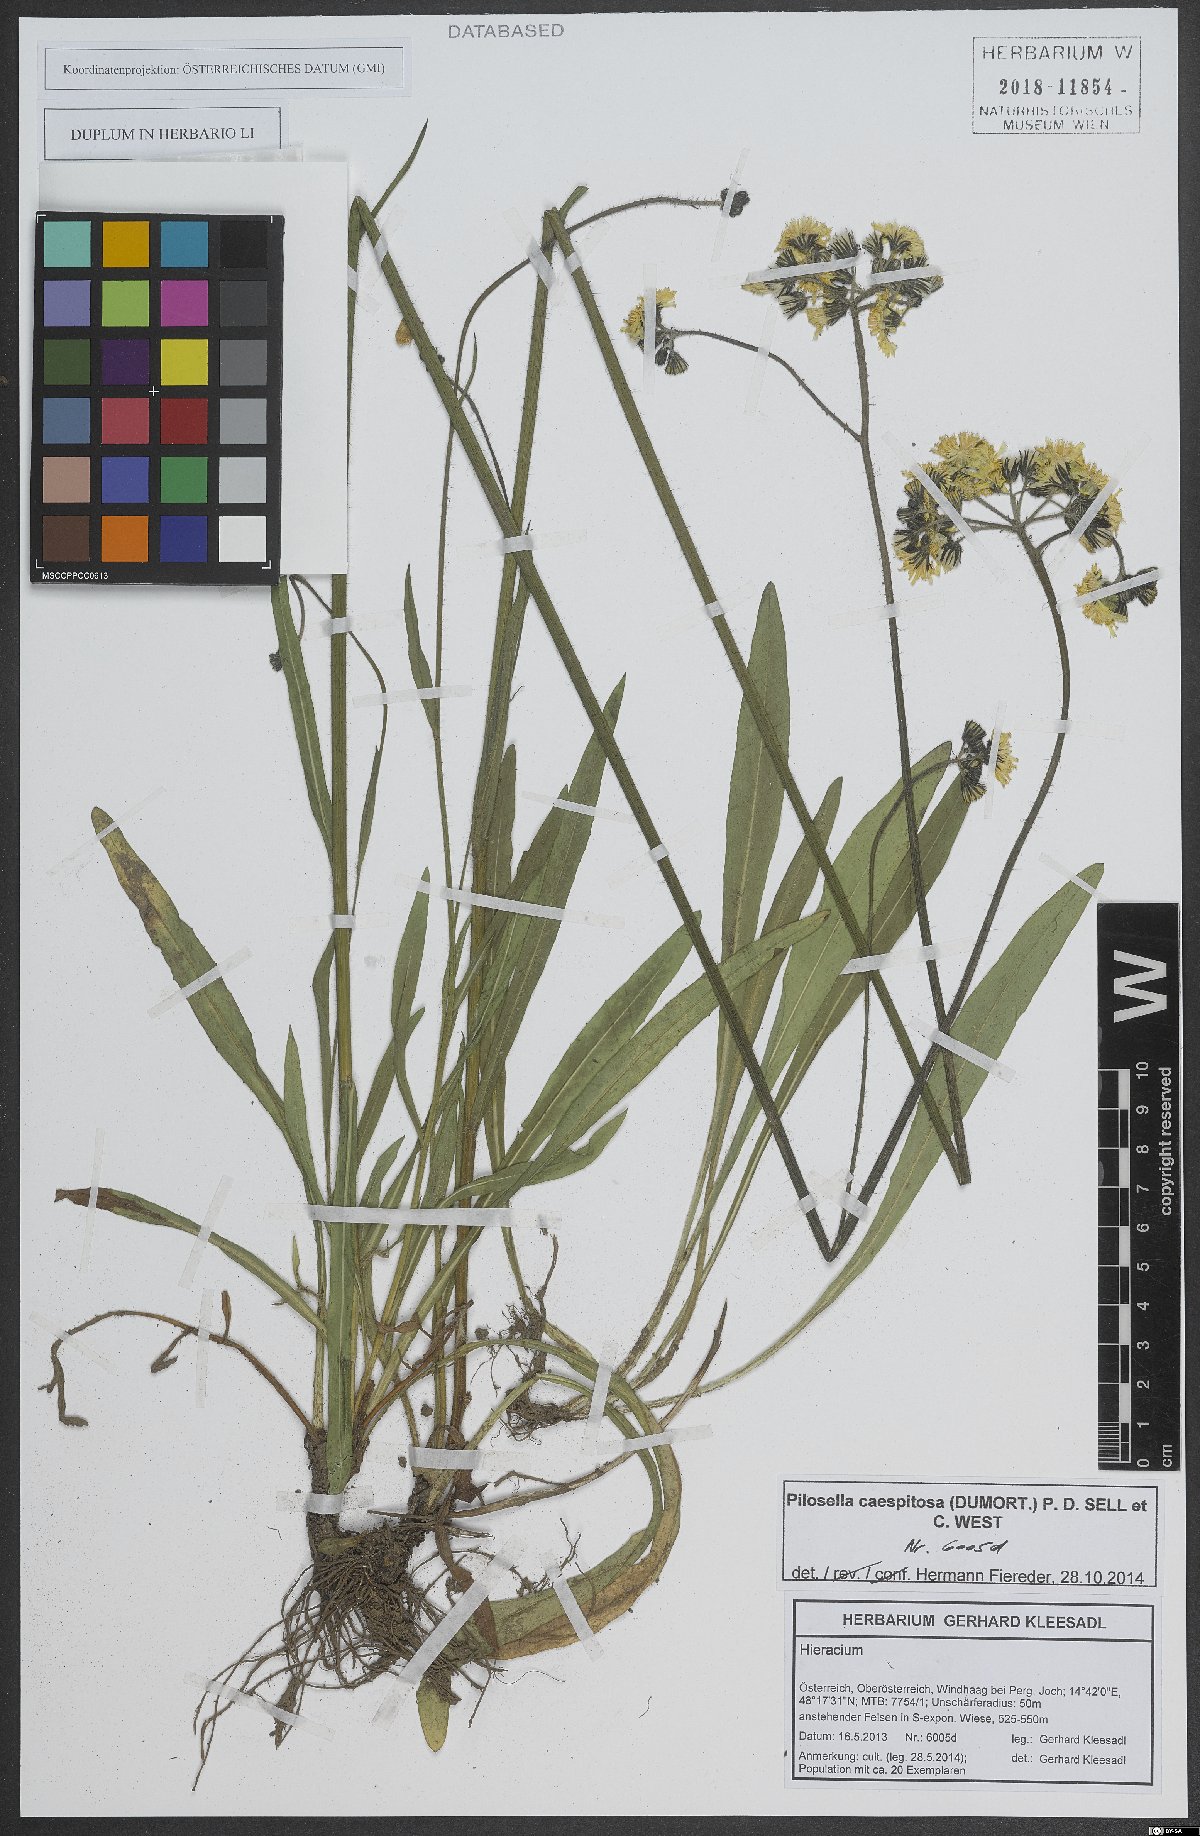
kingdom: Plantae
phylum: Tracheophyta
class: Magnoliopsida
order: Asterales
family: Asteraceae
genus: Pilosella
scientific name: Pilosella caespitosa
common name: Yellow fox-and-cubs
